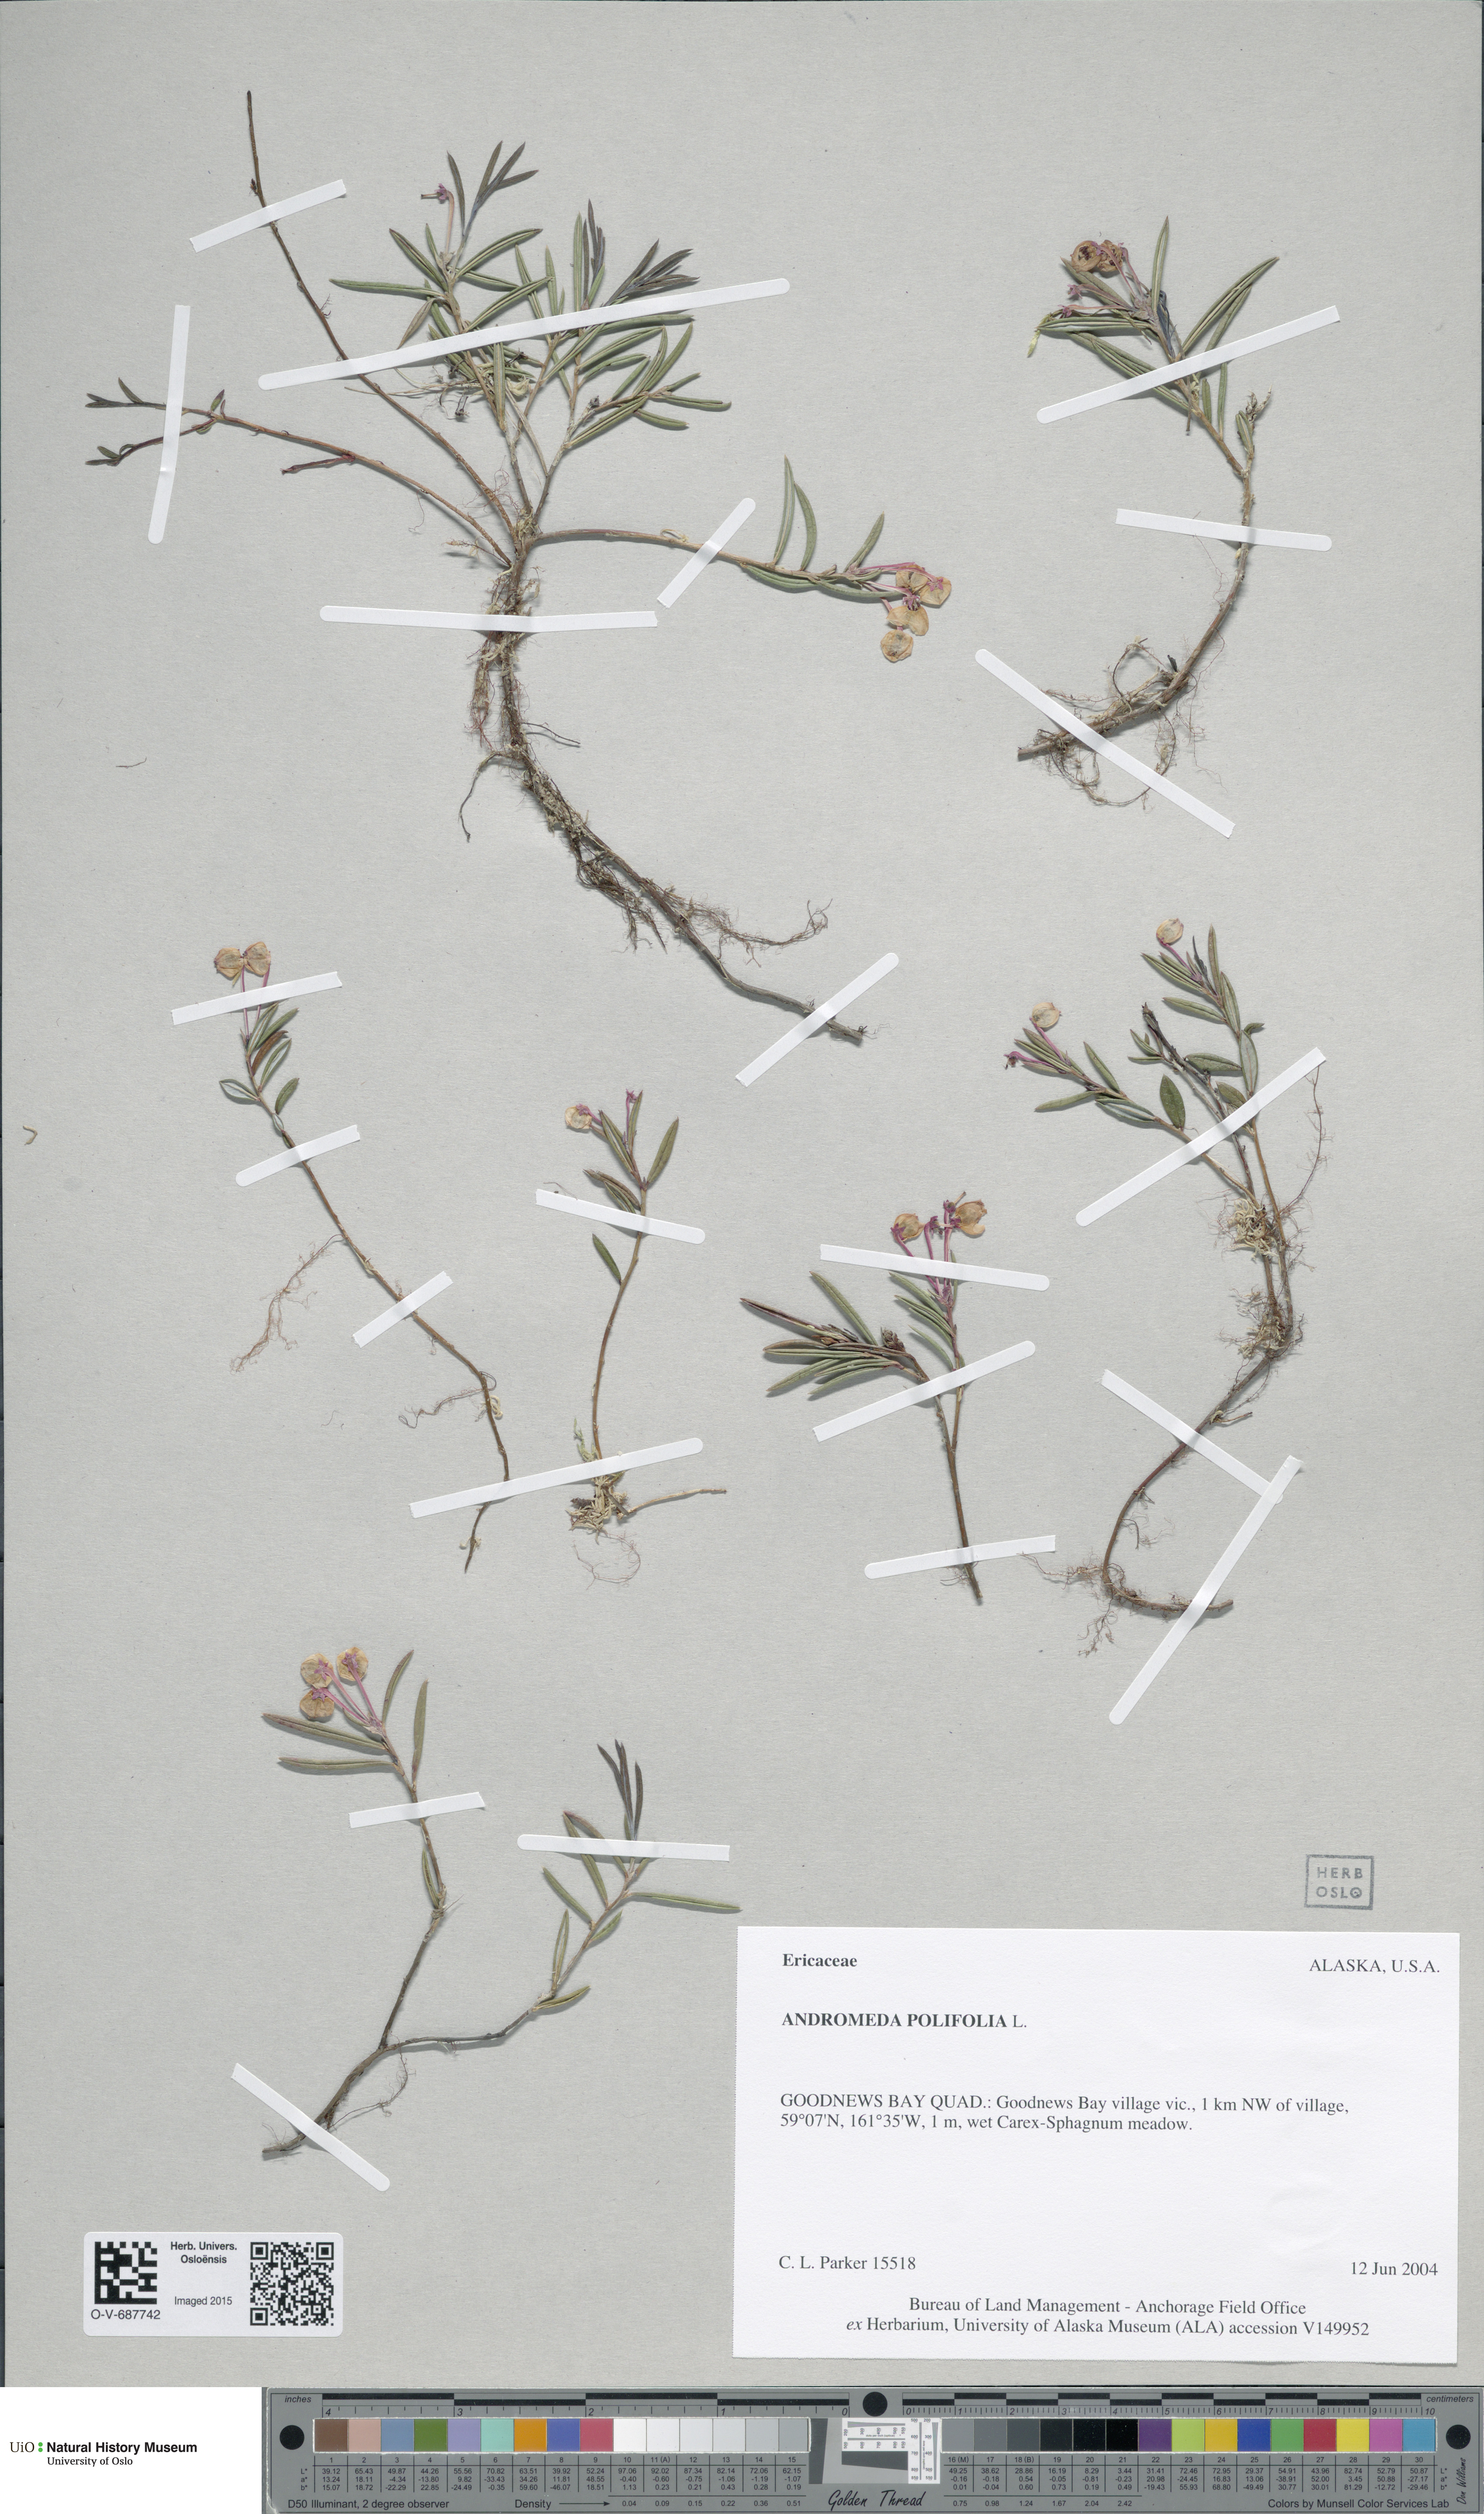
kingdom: Plantae
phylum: Tracheophyta
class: Magnoliopsida
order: Ericales
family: Ericaceae
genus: Andromeda
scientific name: Andromeda polifolia
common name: Bog-rosemary
